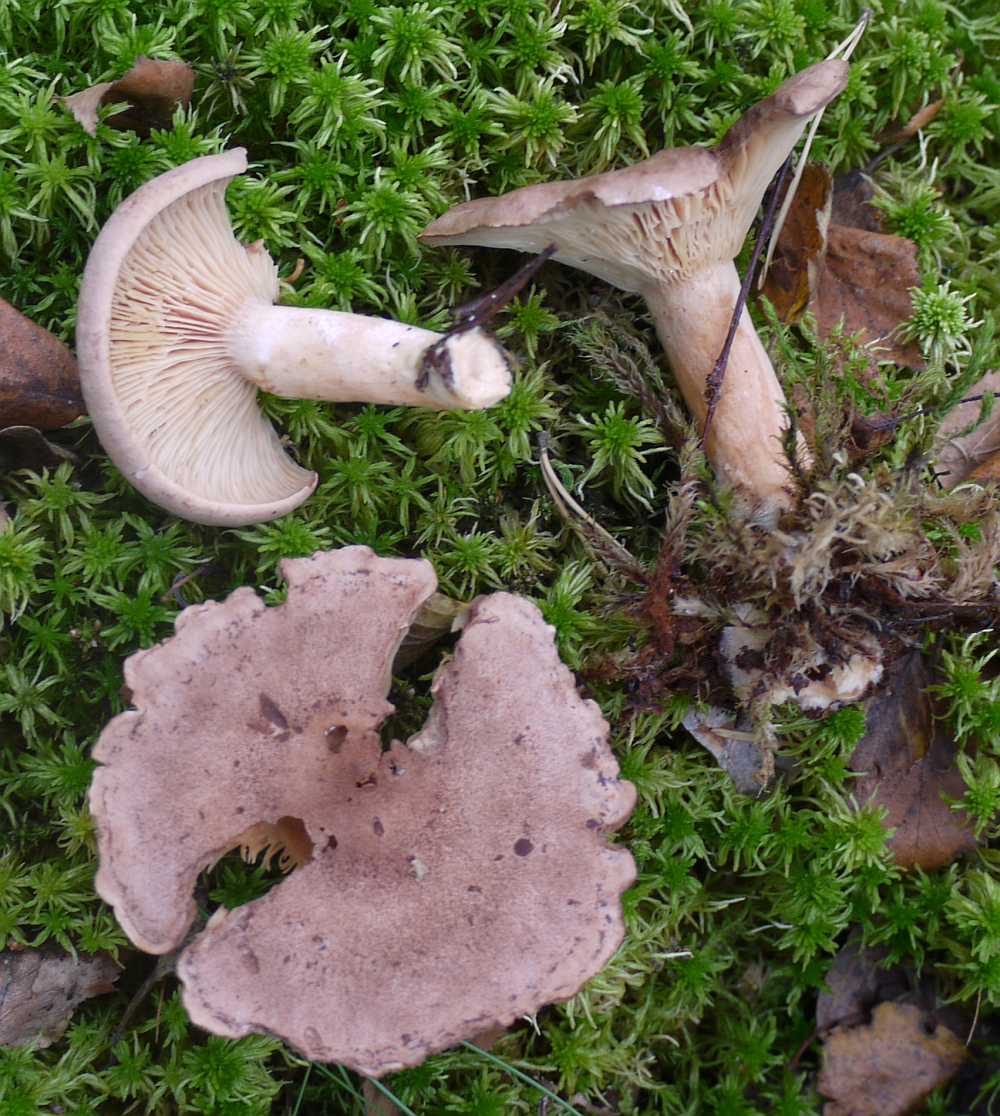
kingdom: Fungi
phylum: Basidiomycota
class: Agaricomycetes
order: Russulales
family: Russulaceae
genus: Lactarius
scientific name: Lactarius helvus
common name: mose-mælkehat
